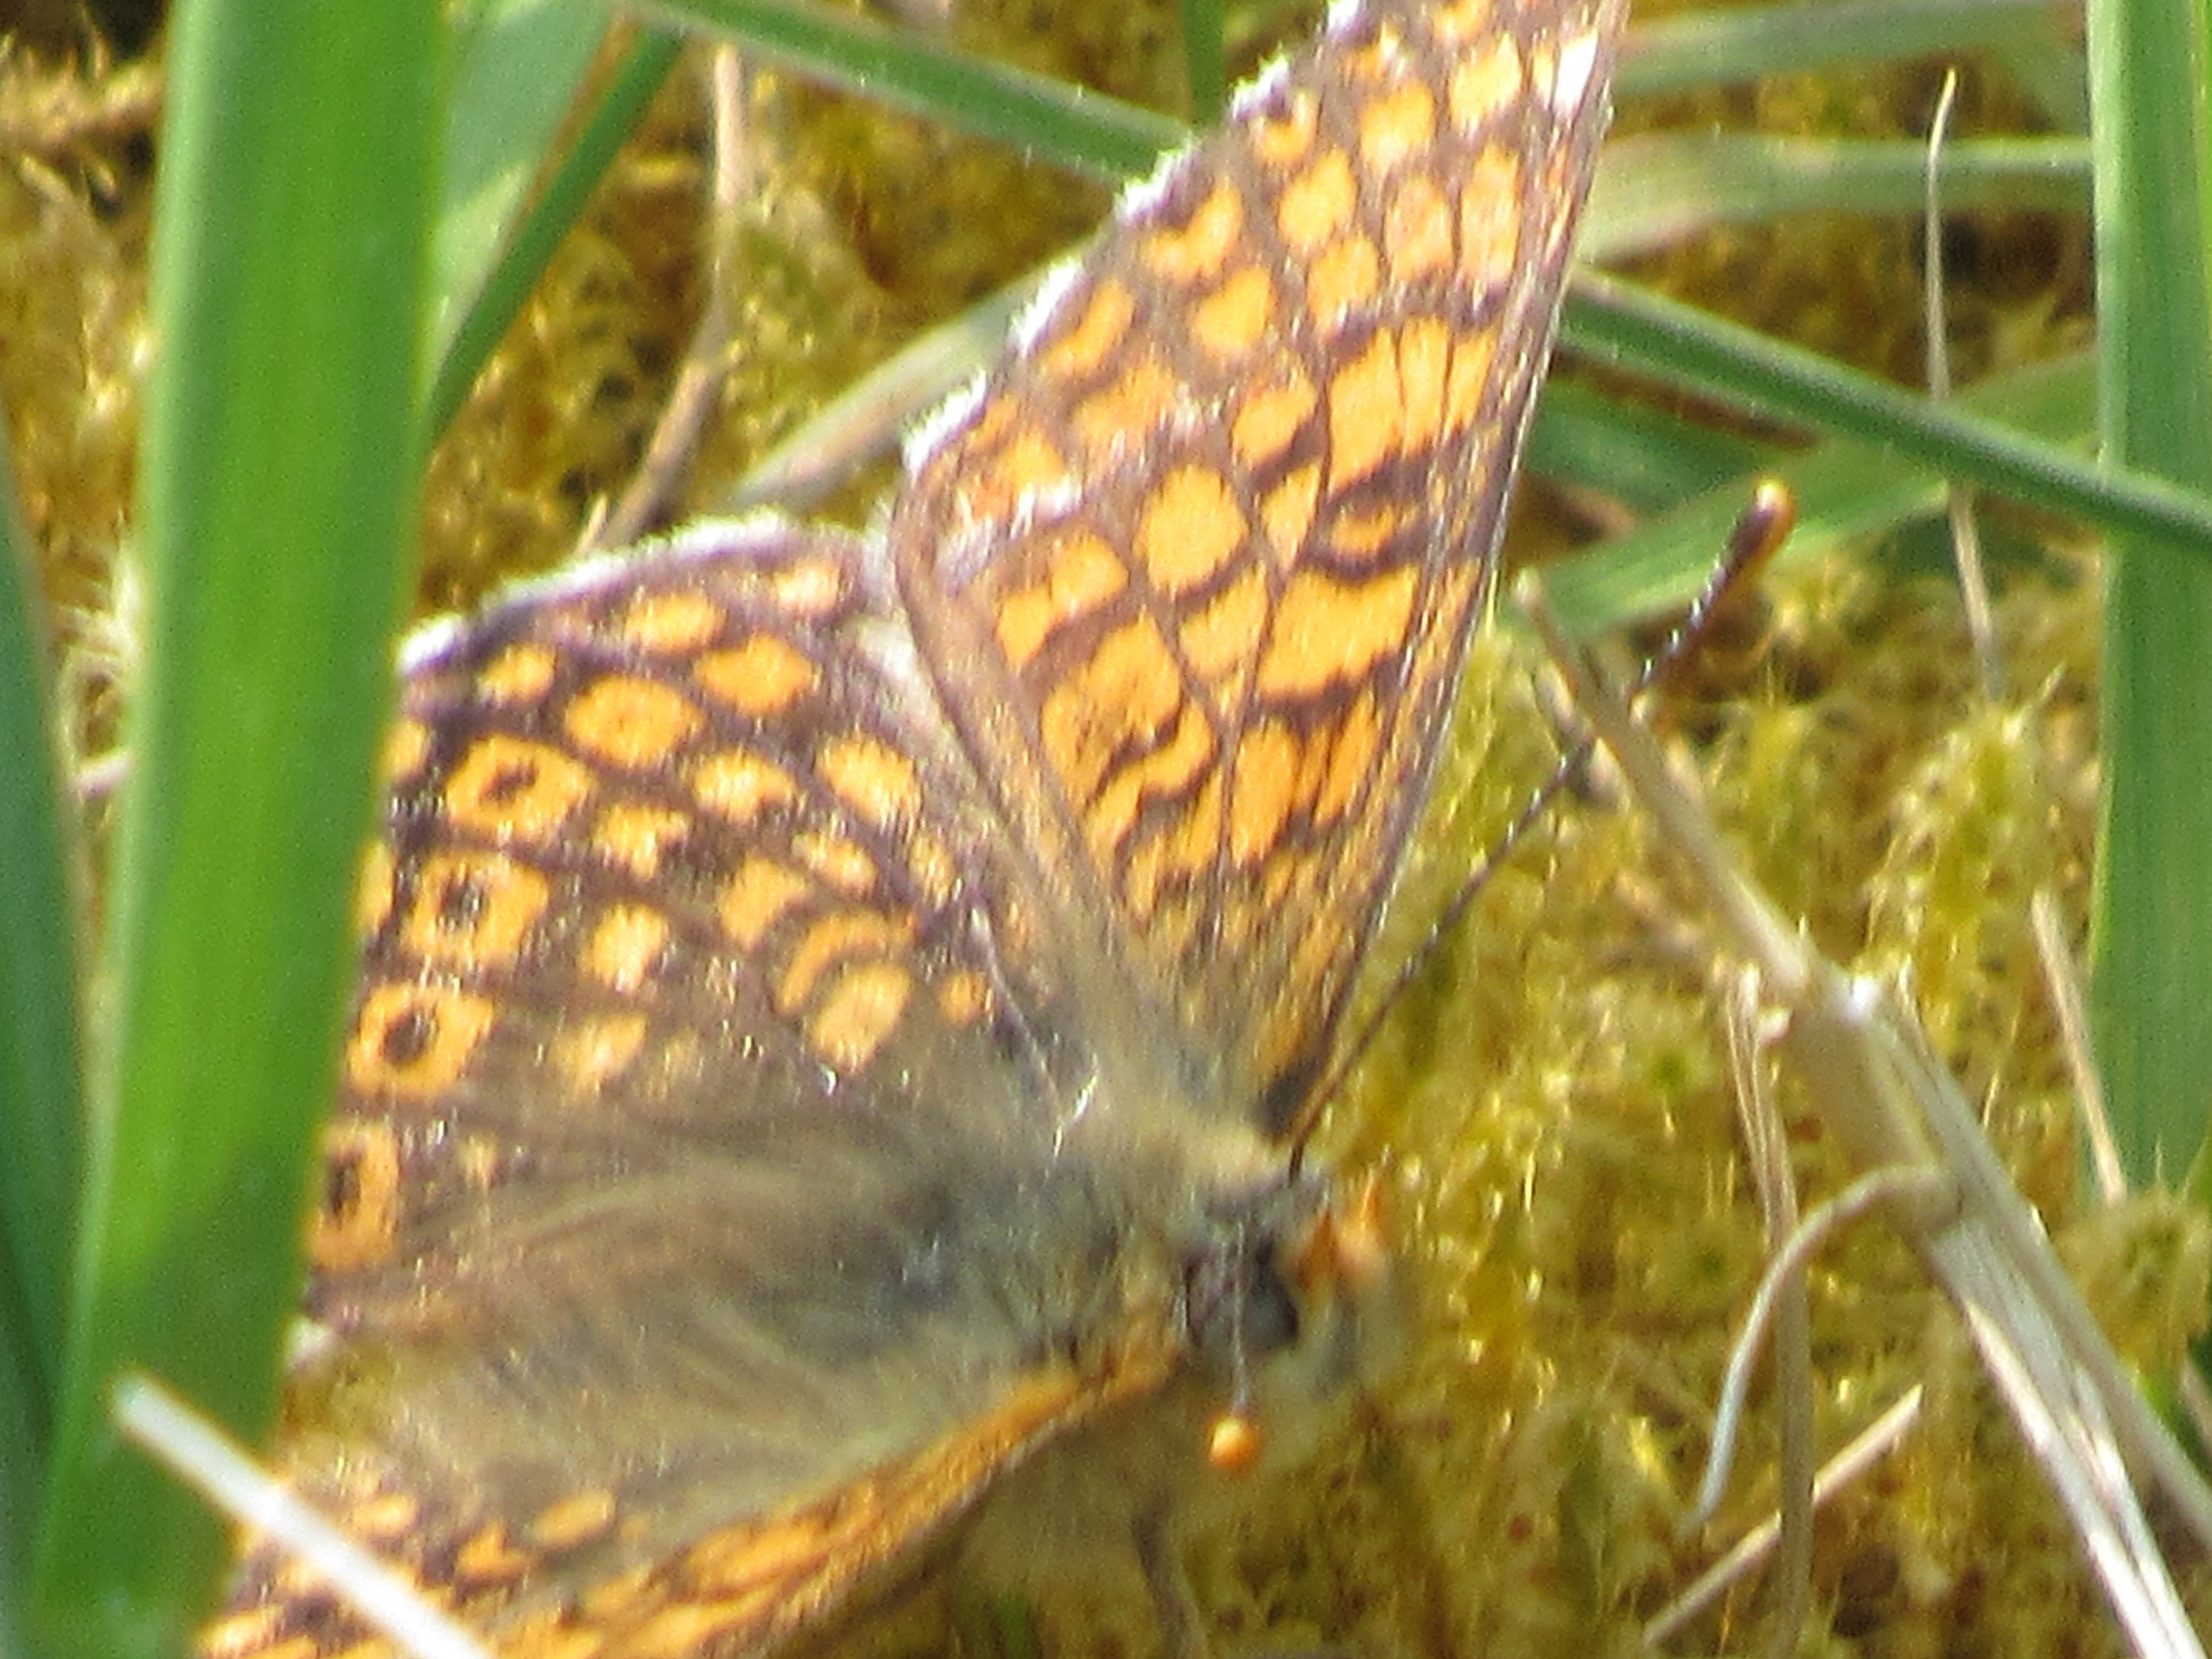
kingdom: Animalia
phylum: Arthropoda
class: Insecta
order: Lepidoptera
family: Nymphalidae
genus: Melitaea
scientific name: Melitaea cinxia
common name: Okkergul pletvinge
